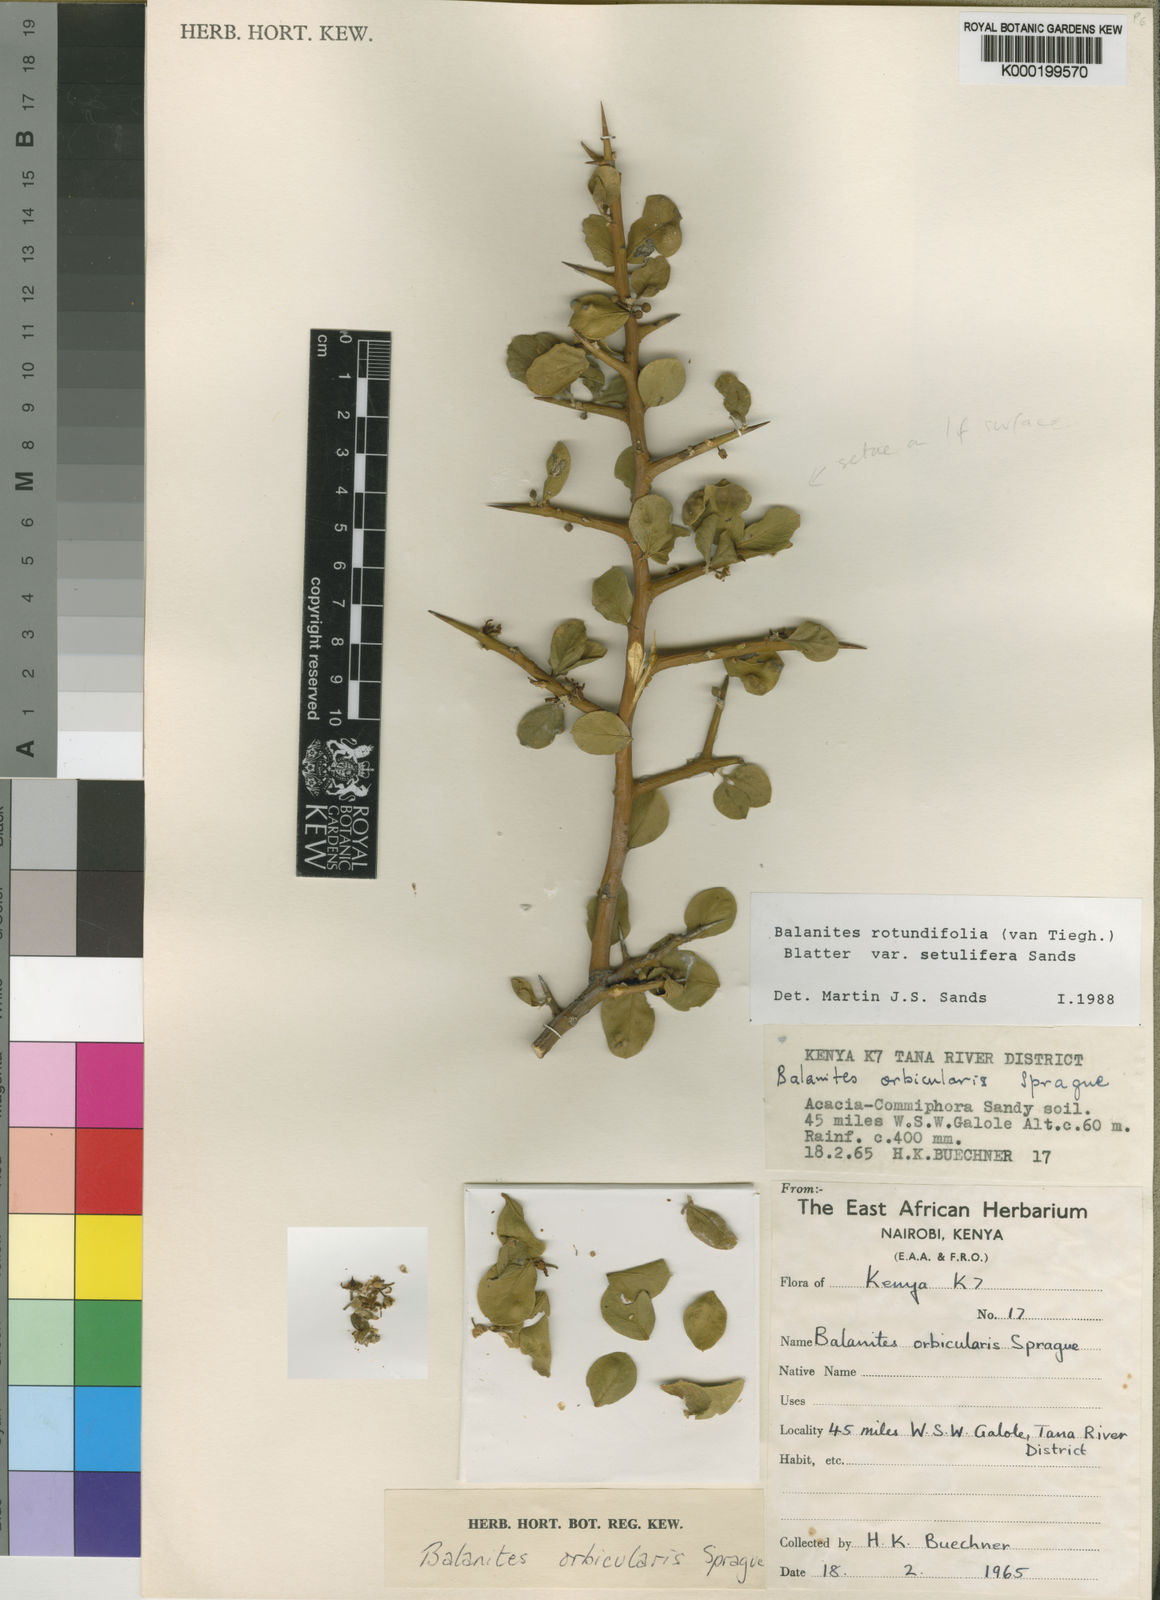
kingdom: Plantae
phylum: Tracheophyta
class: Magnoliopsida
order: Zygophyllales
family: Zygophyllaceae
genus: Balanites
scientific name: Balanites rotundifolia
